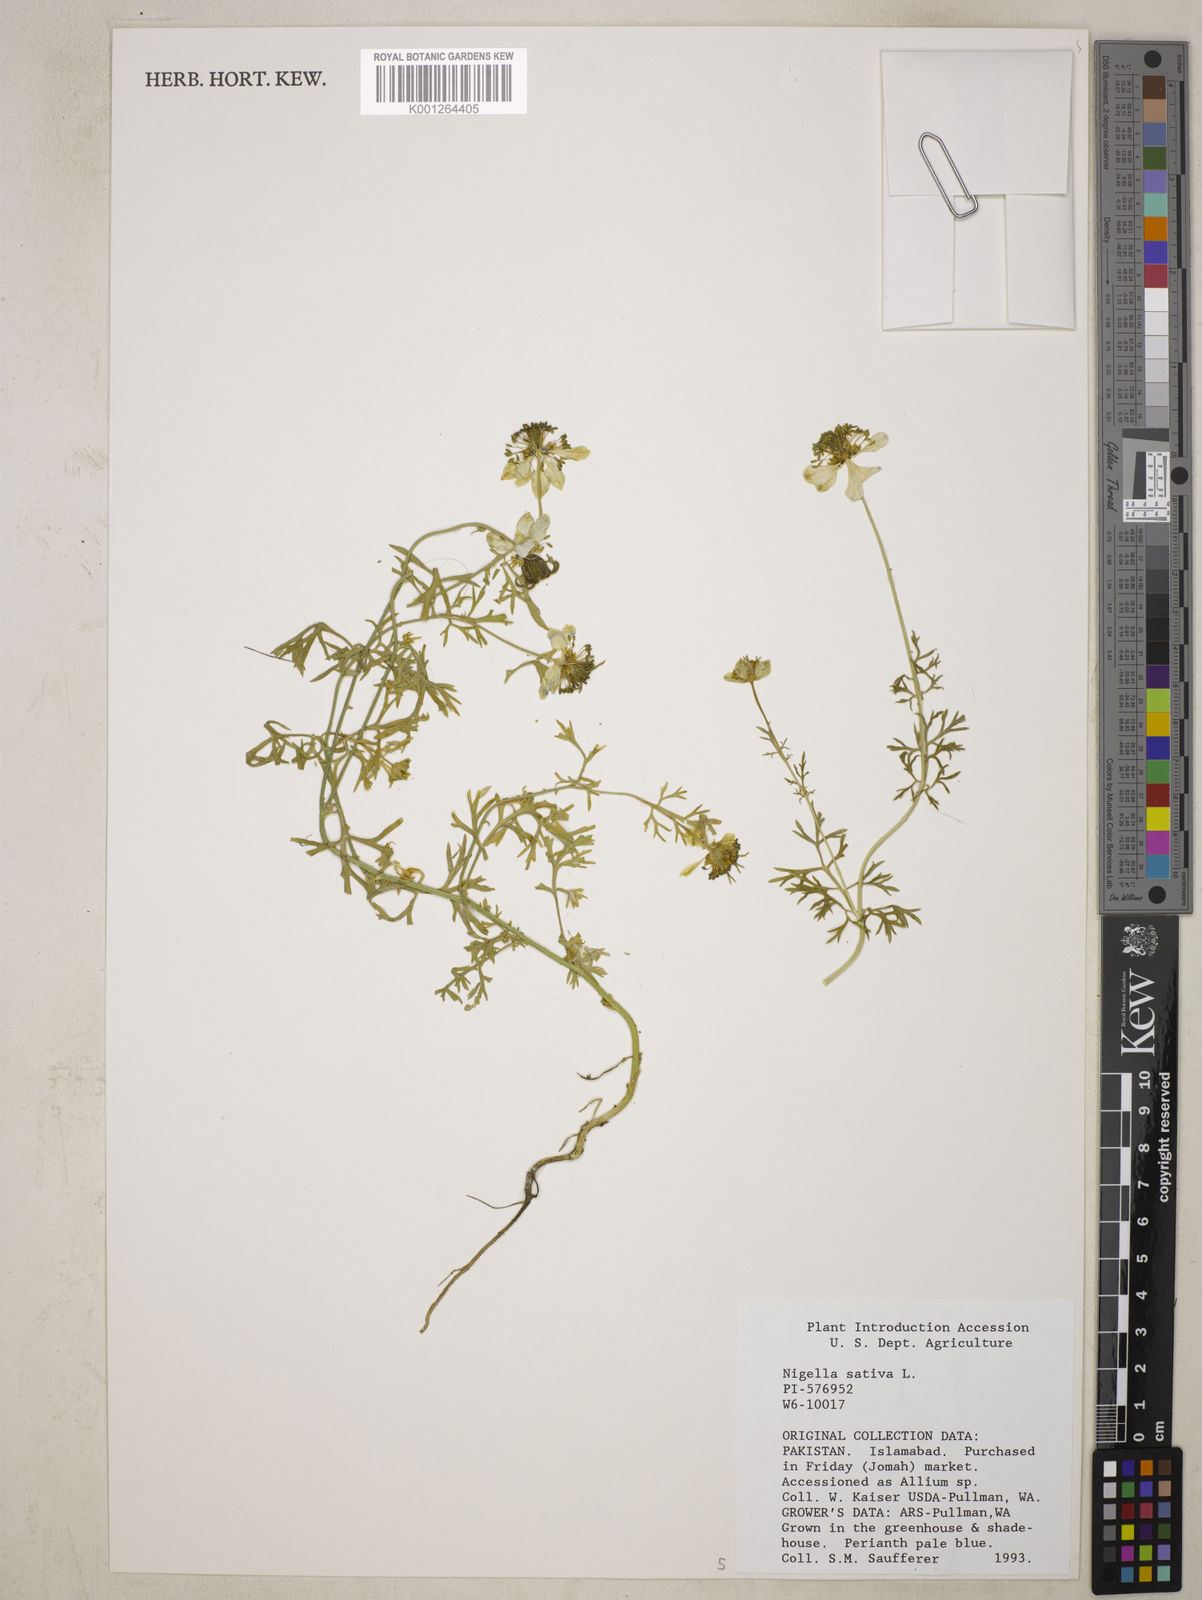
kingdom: Plantae
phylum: Tracheophyta
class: Magnoliopsida
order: Ranunculales
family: Ranunculaceae
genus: Nigella
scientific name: Nigella sativa
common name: Black-cumin
